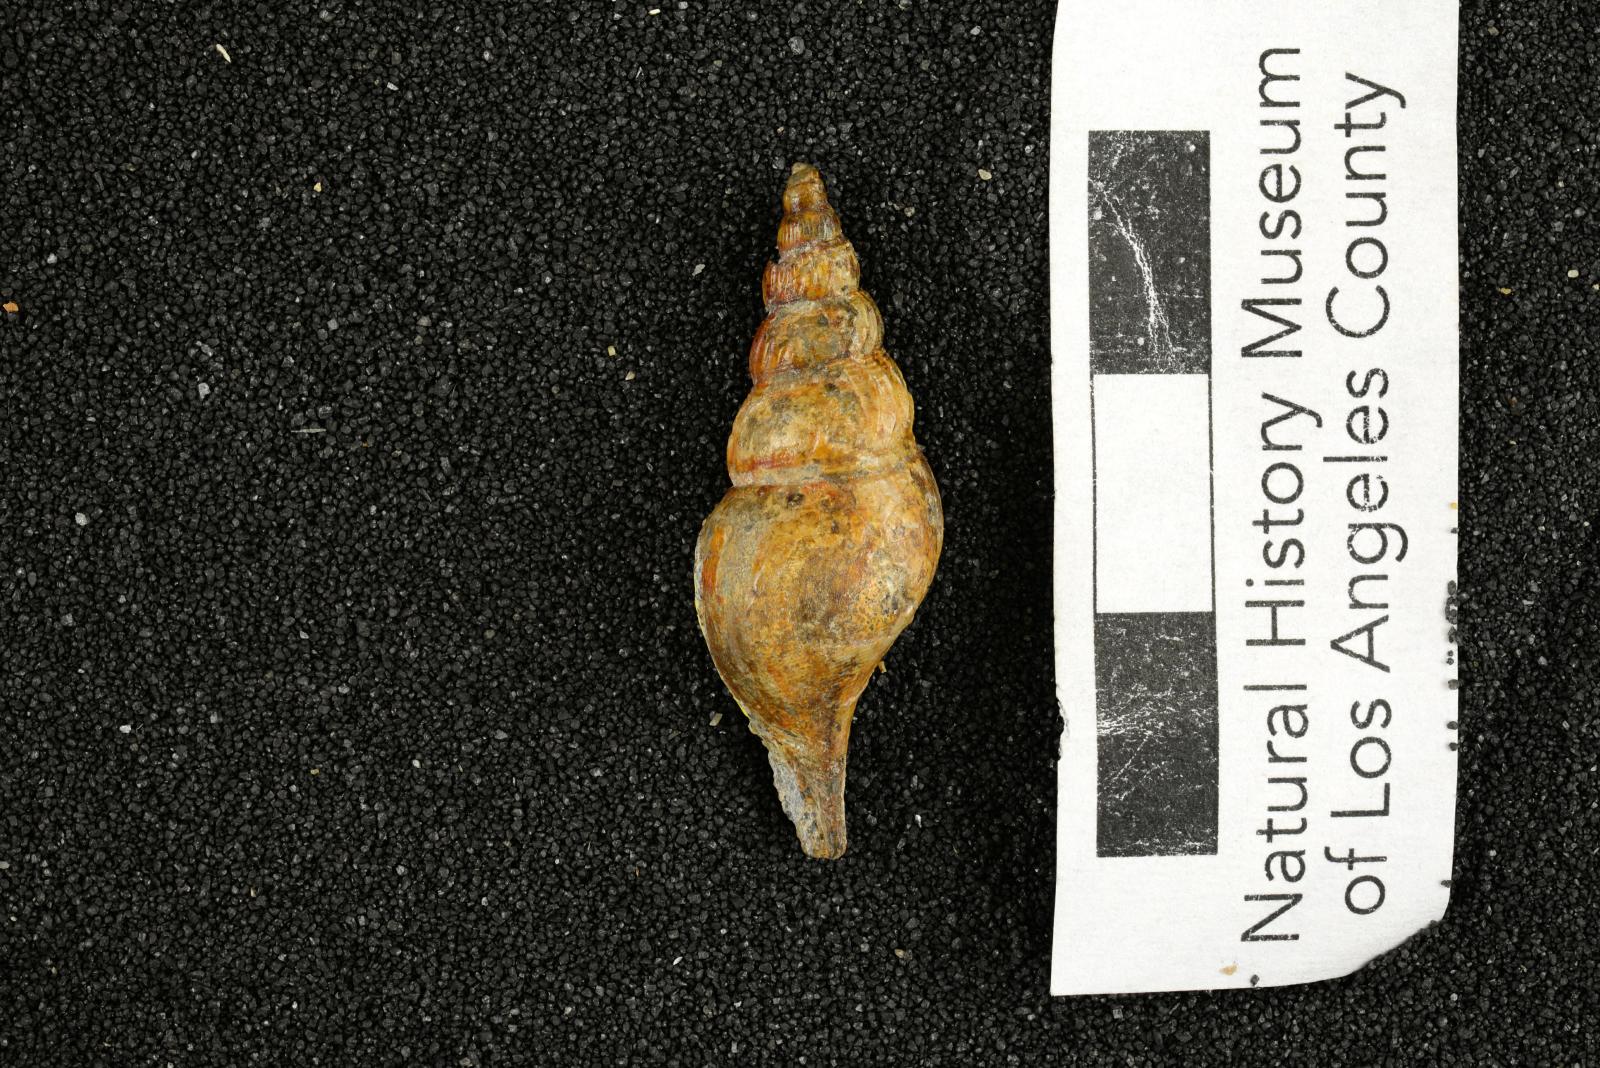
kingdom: Animalia
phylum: Mollusca
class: Gastropoda
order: Littorinimorpha
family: Aporrhaidae
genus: Latiala
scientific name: Latiala sigma
